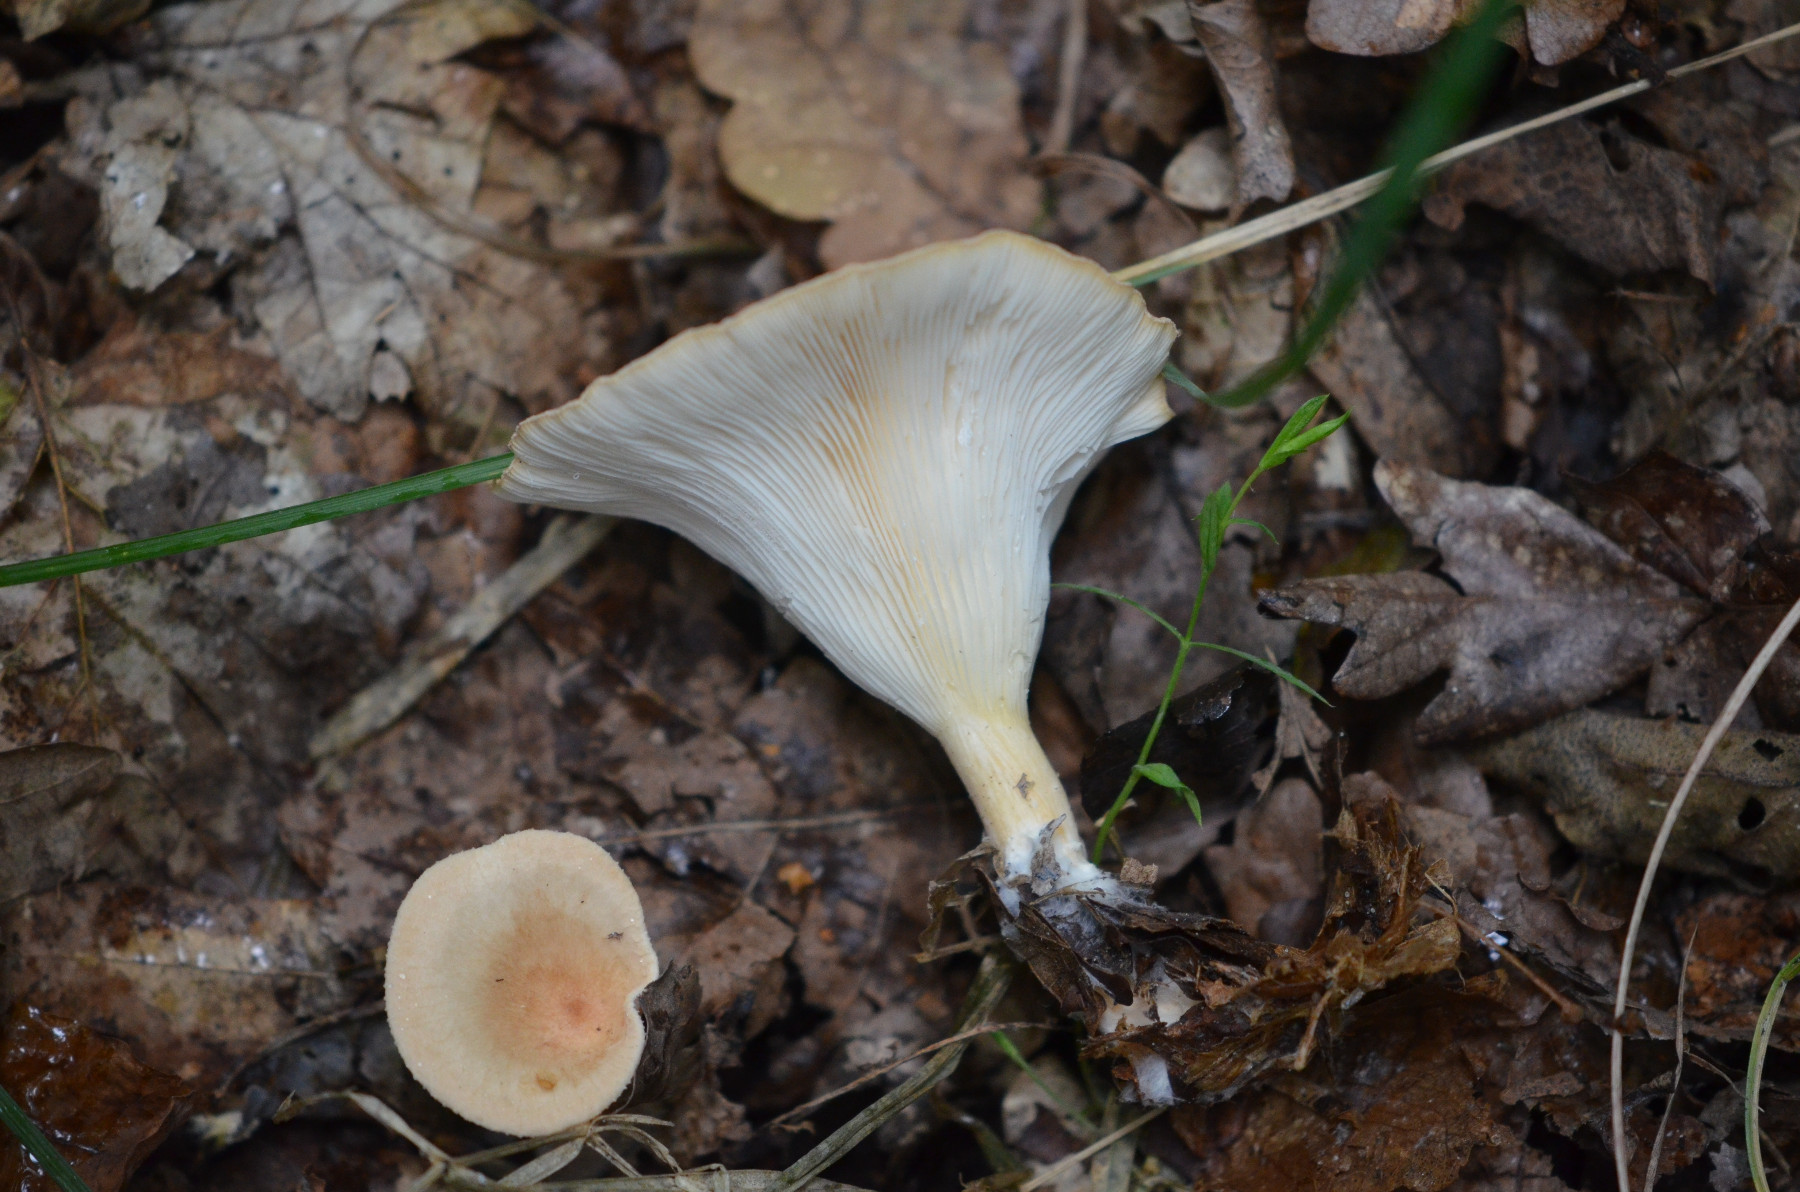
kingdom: Fungi
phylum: Basidiomycota
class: Agaricomycetes
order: Agaricales
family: Tricholomataceae
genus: Infundibulicybe
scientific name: Infundibulicybe gibba
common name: almindelig tragthat
